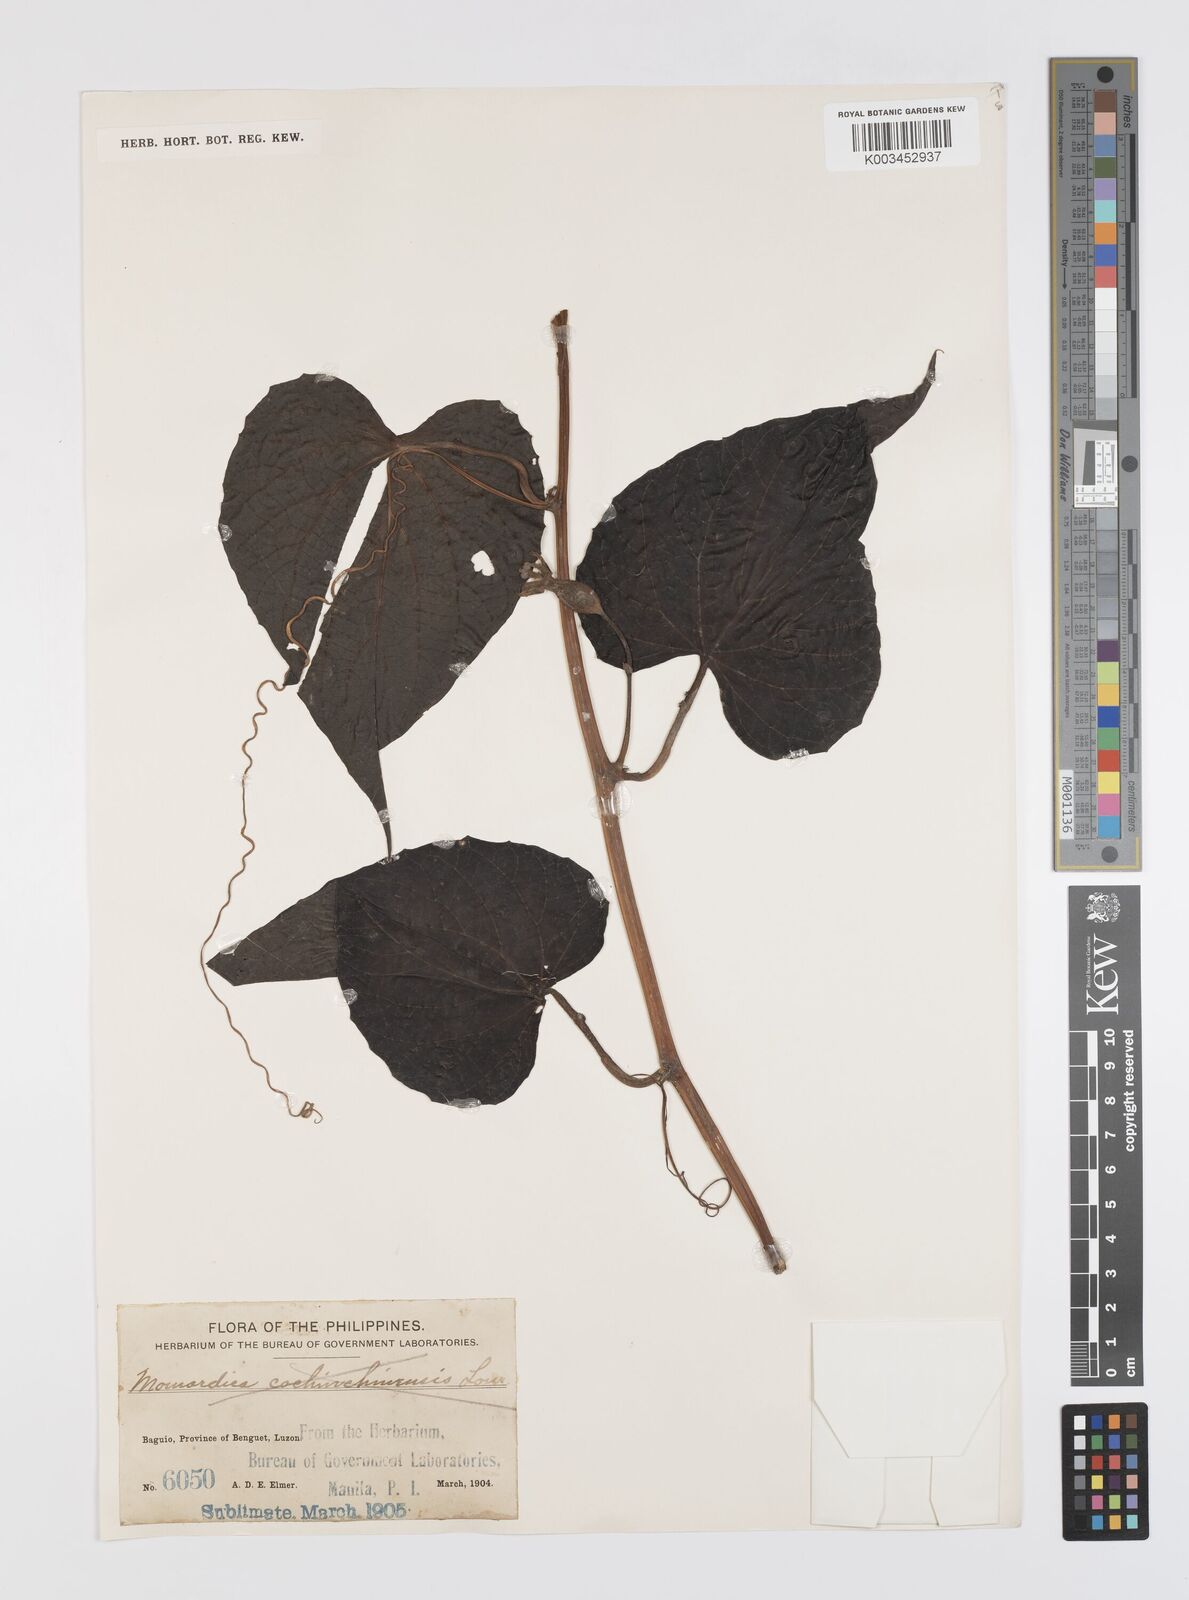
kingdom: Plantae
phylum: Tracheophyta
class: Magnoliopsida
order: Cucurbitales
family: Cucurbitaceae
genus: Momordica
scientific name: Momordica cochinchinensis
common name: Chinese bitter-cucumber
